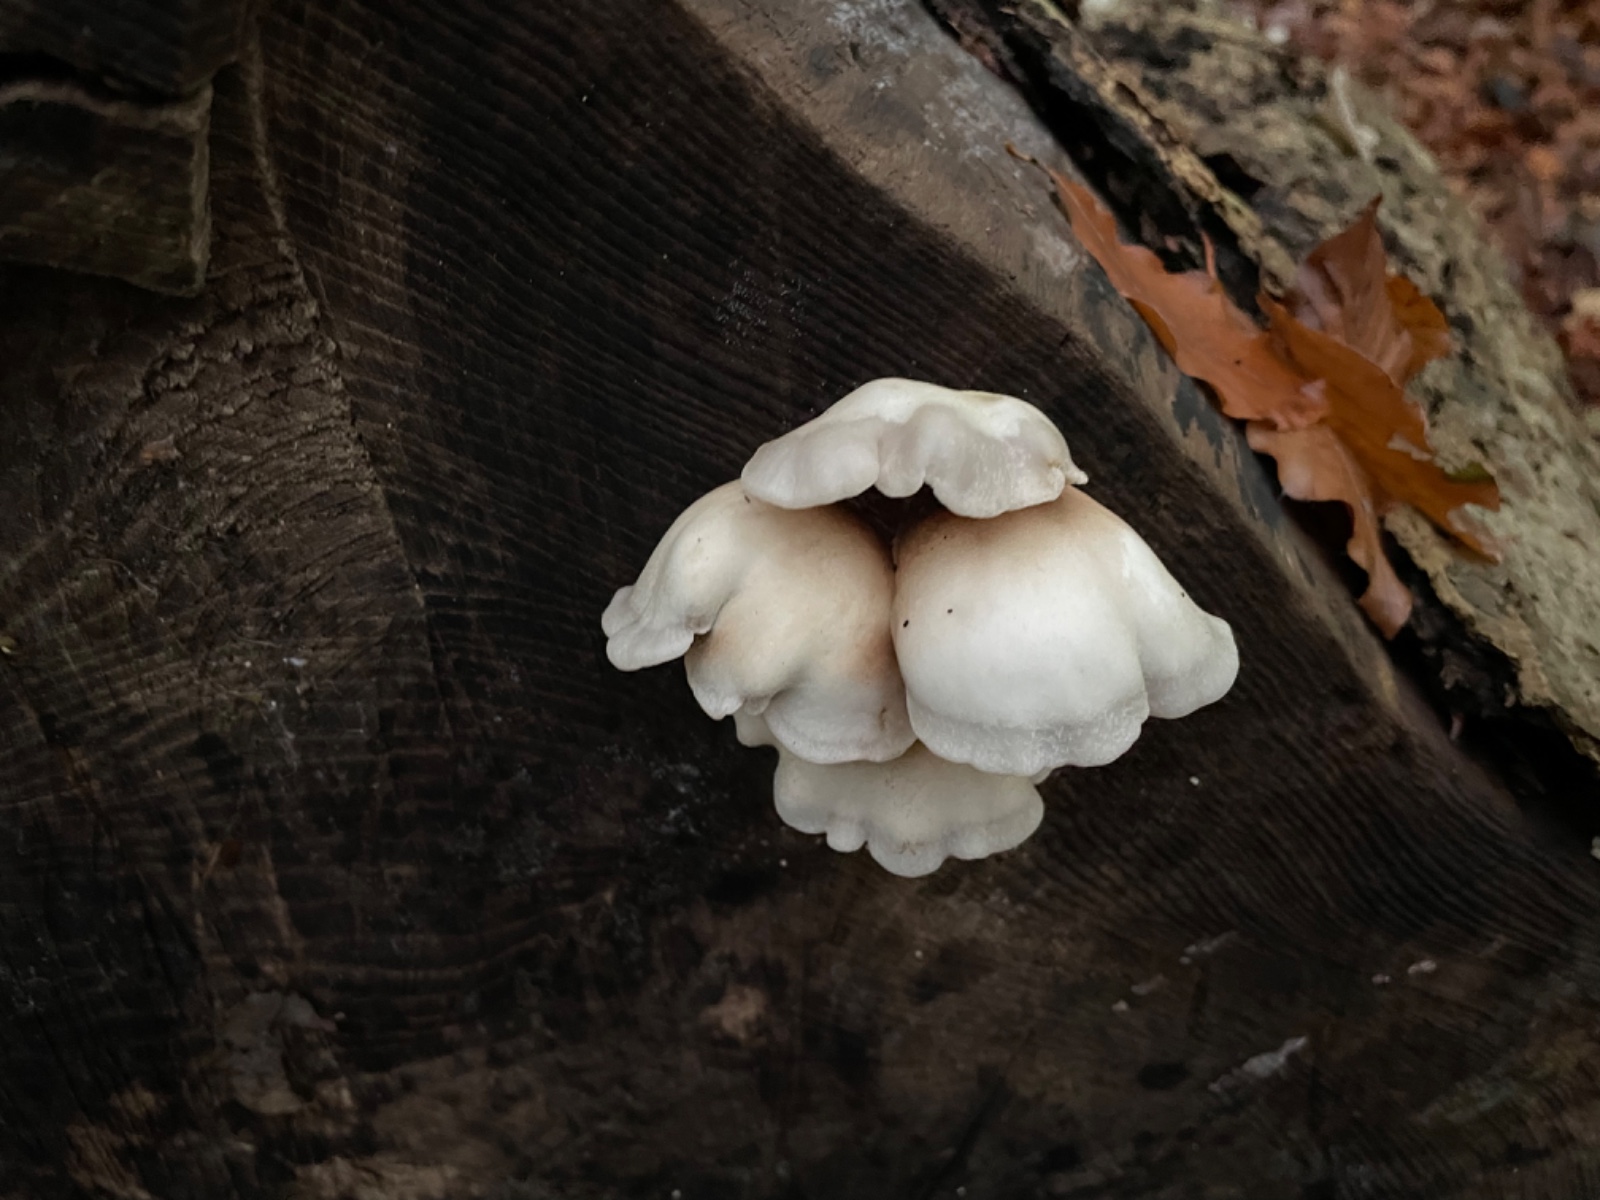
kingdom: Fungi
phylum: Basidiomycota
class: Agaricomycetes
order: Agaricales
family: Crepidotaceae
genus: Crepidotus
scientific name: Crepidotus mollis
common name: blød muslingesvamp
